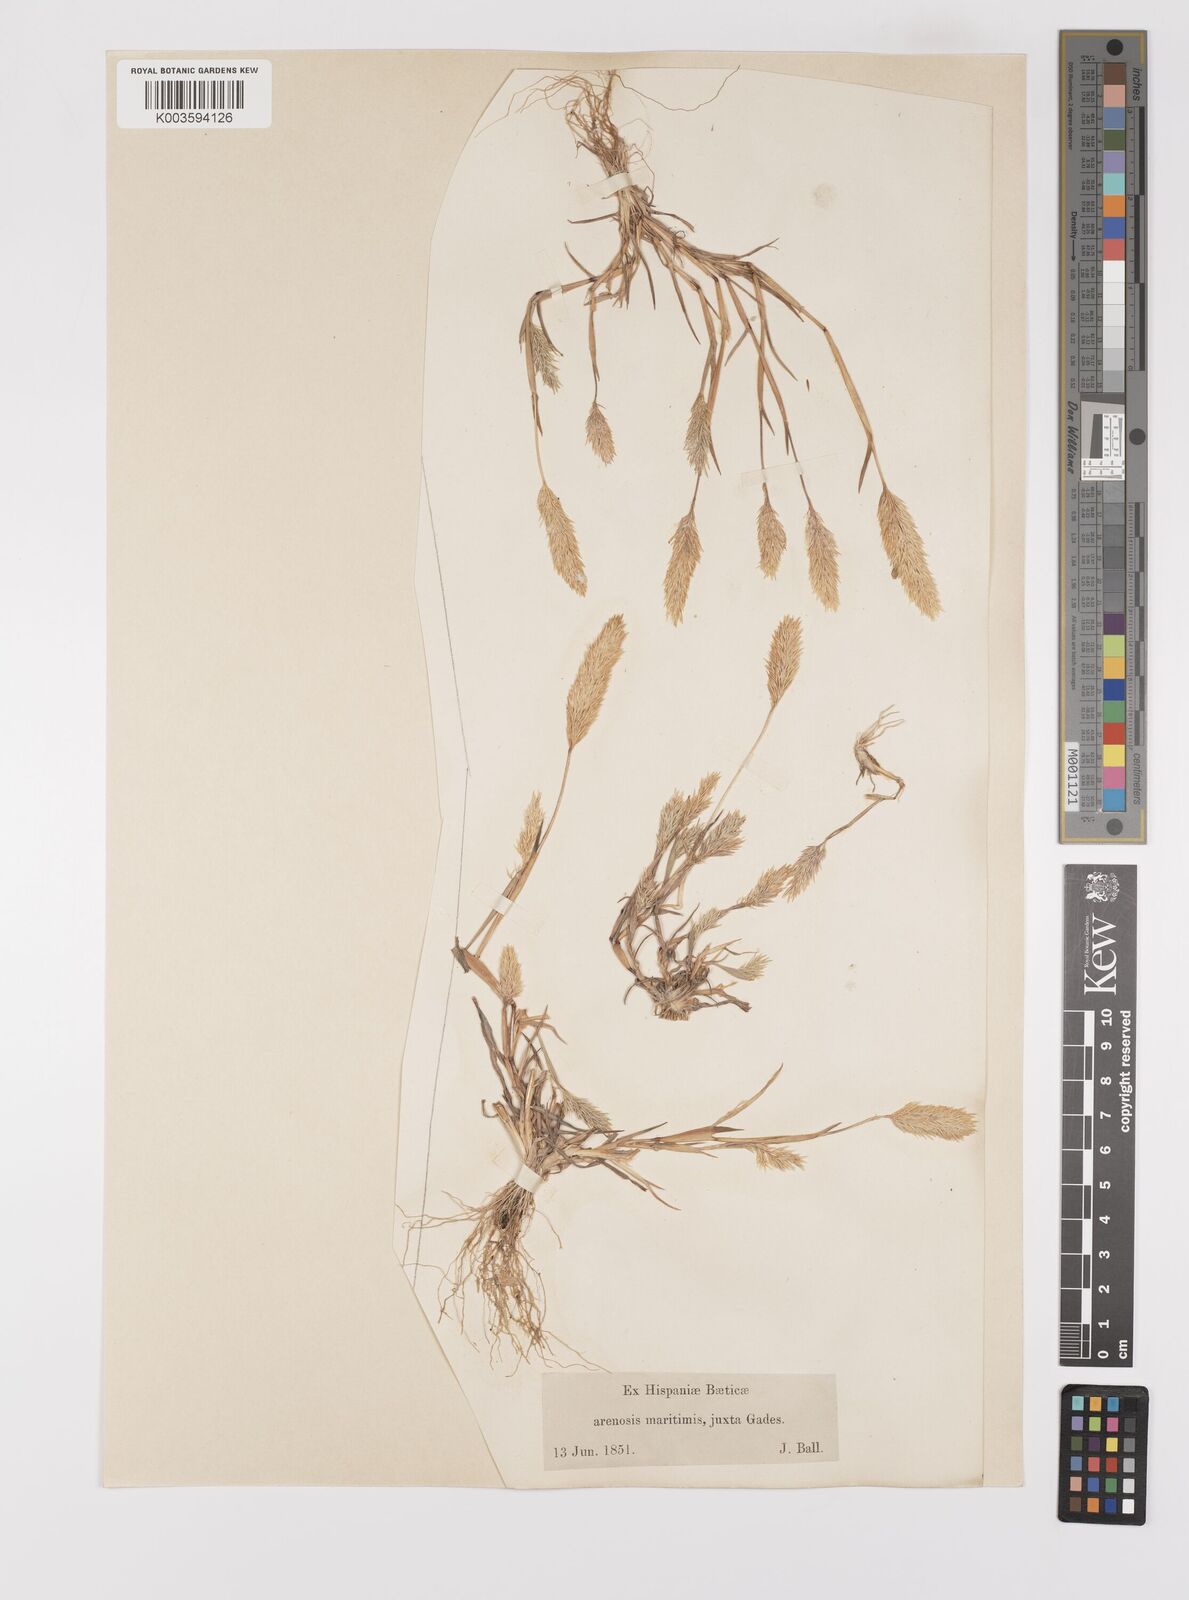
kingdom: Plantae
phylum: Tracheophyta
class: Liliopsida
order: Poales
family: Poaceae
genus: Triplachne
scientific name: Triplachne nitens
